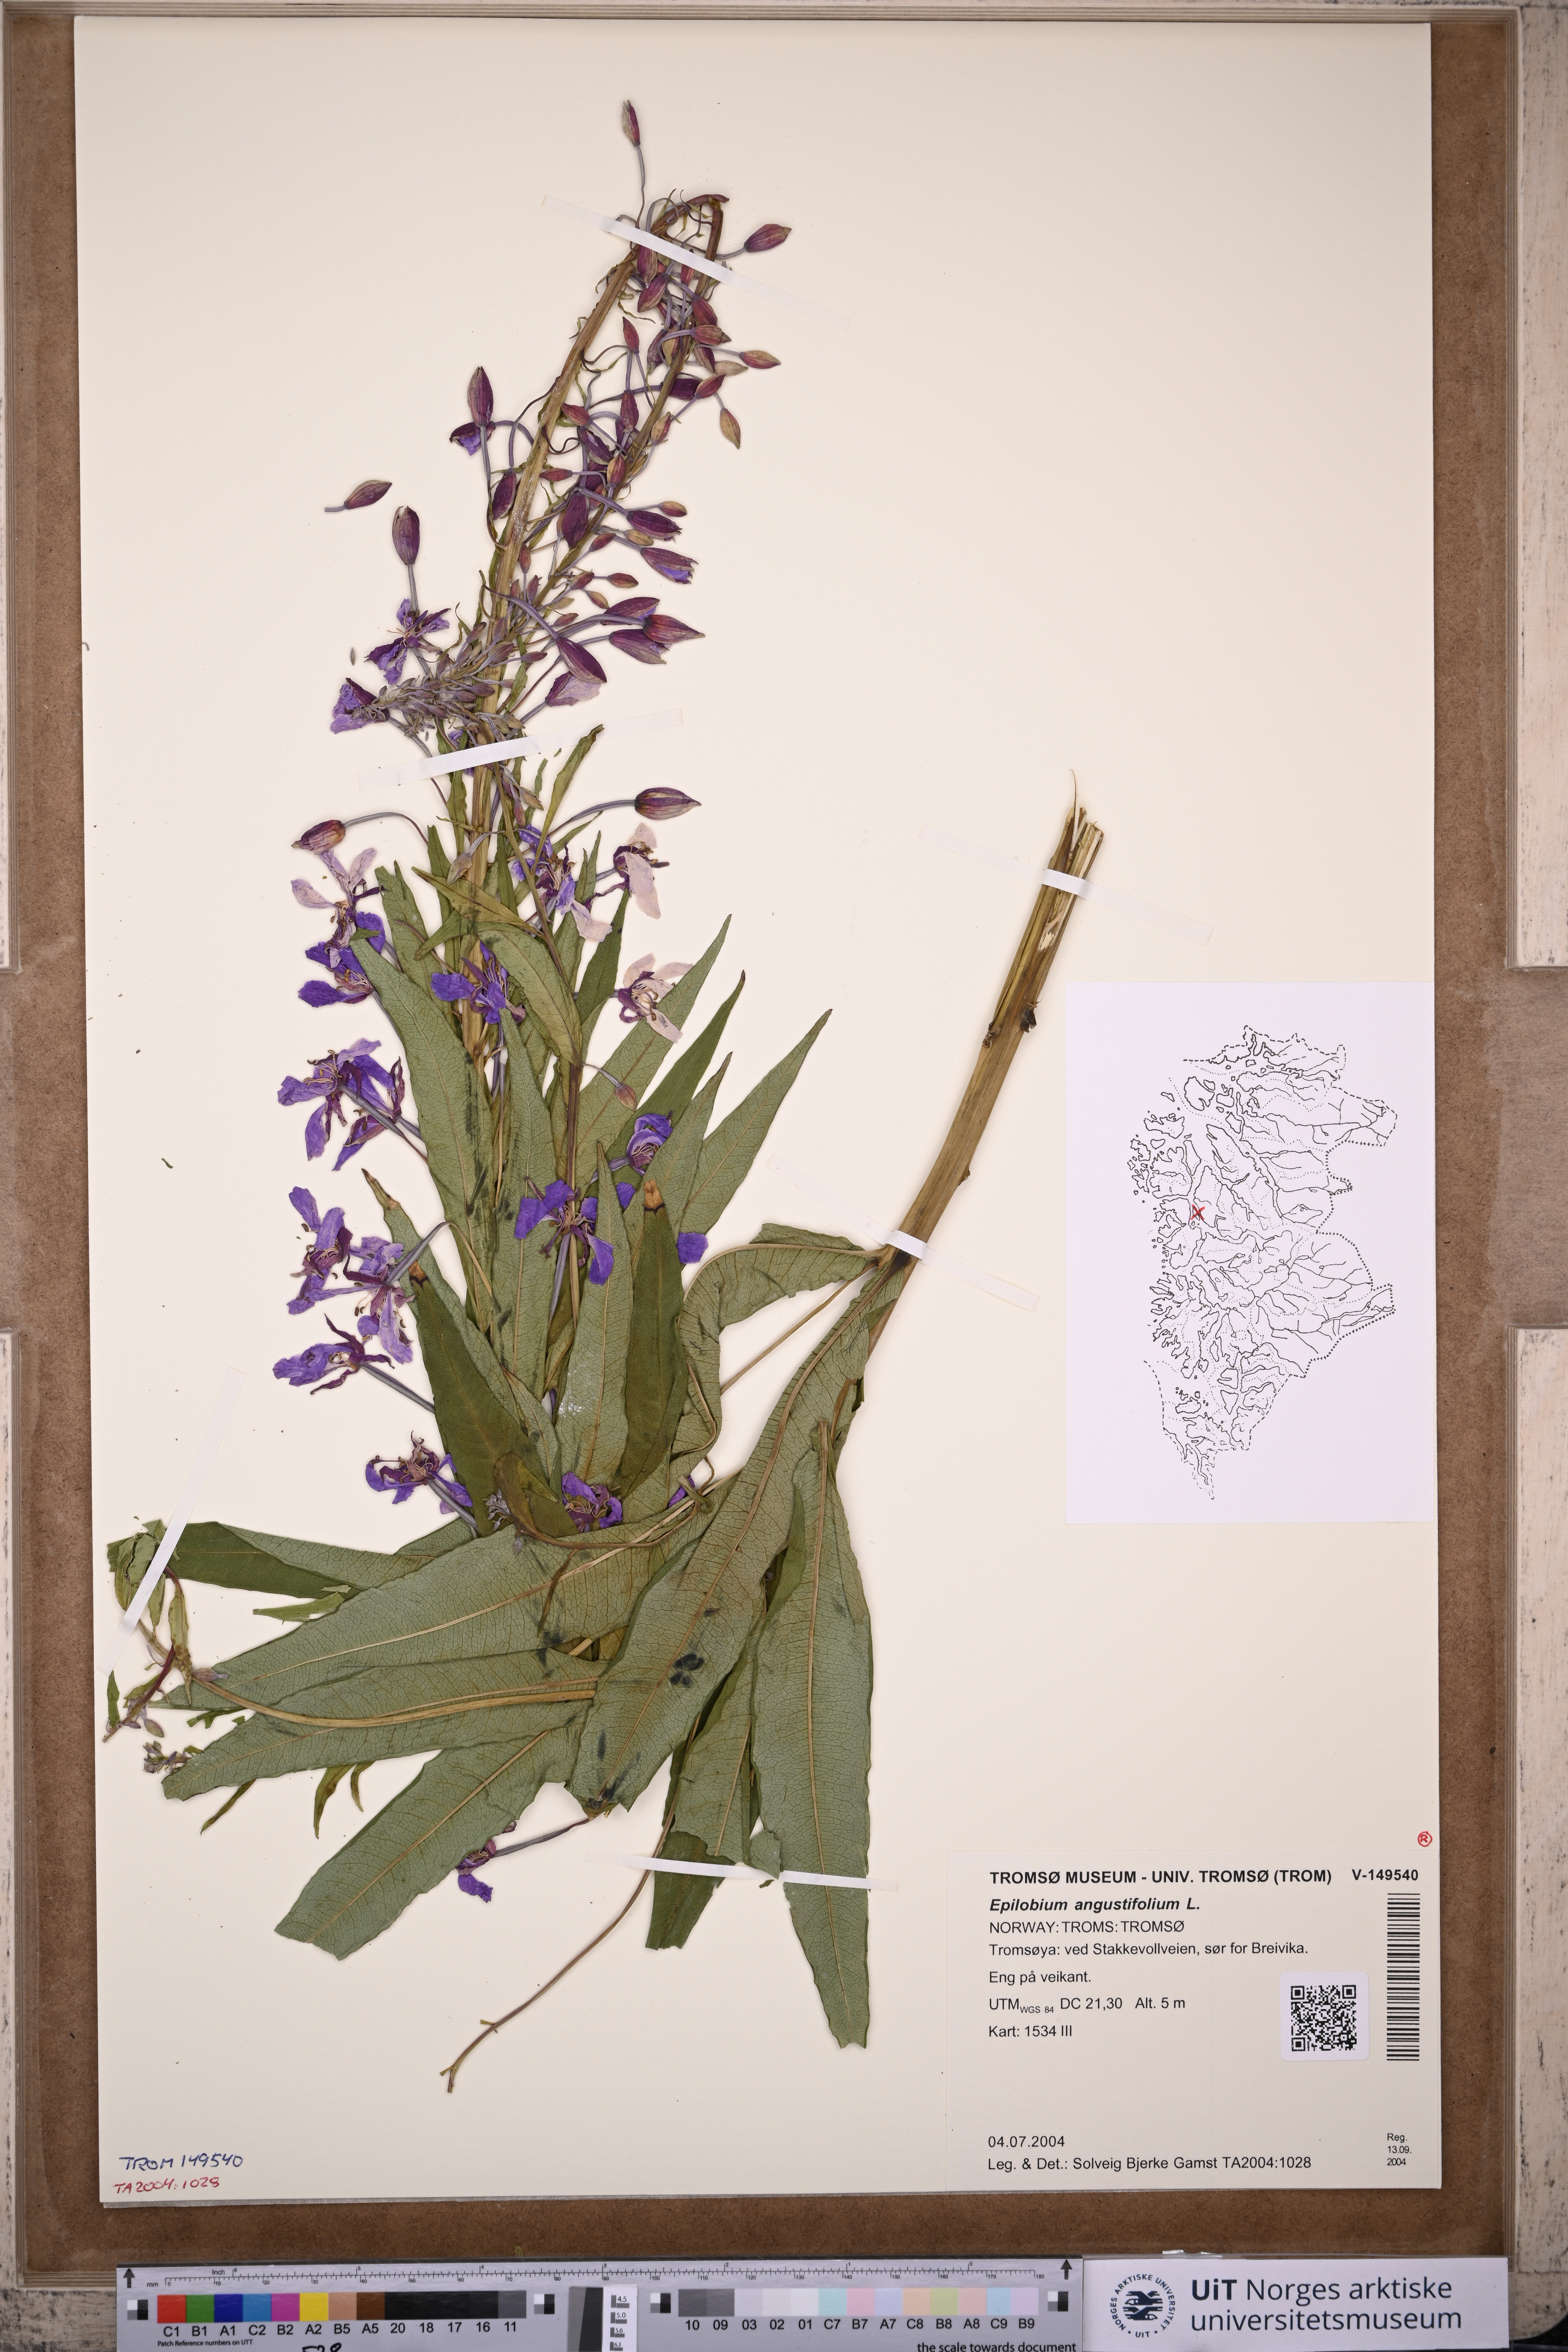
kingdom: Plantae
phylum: Tracheophyta
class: Magnoliopsida
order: Myrtales
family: Onagraceae
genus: Chamaenerion
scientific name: Chamaenerion angustifolium
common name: Fireweed
